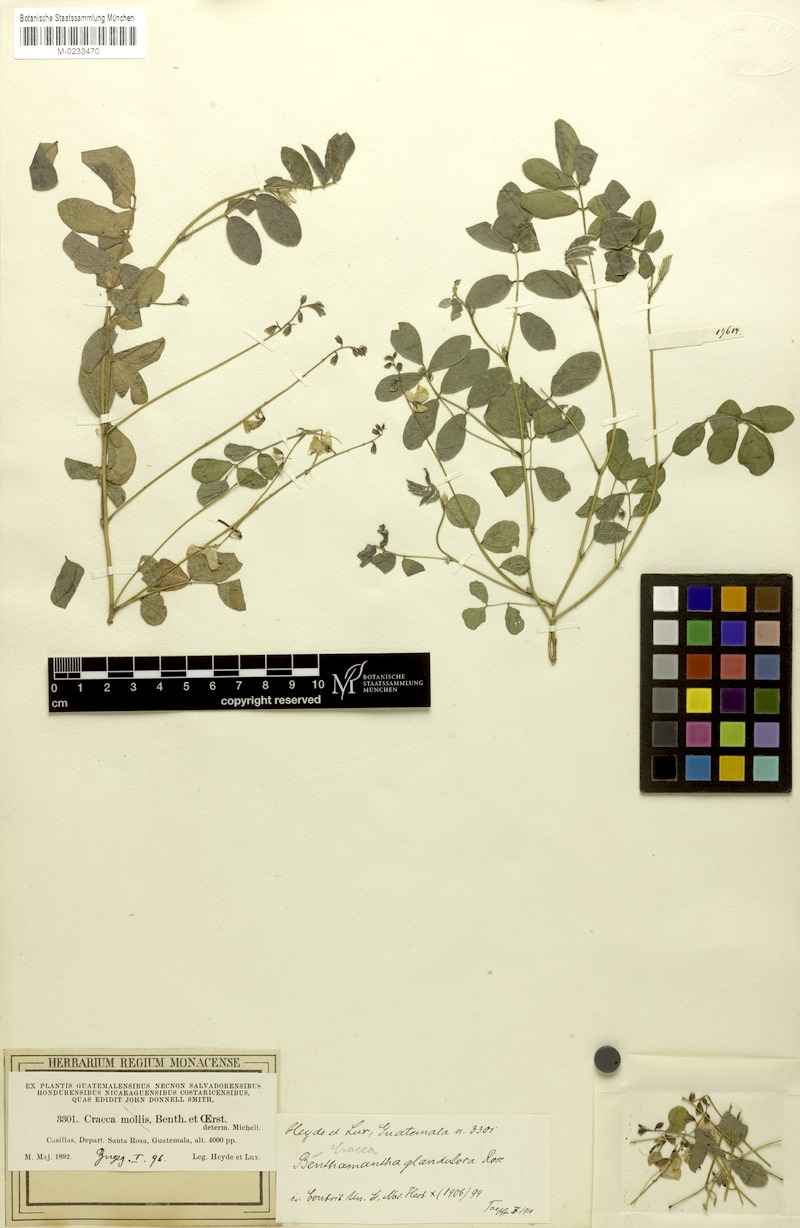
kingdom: Plantae
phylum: Tracheophyta
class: Magnoliopsida
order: Fabales
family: Fabaceae
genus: Coursetia
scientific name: Coursetia caribaea
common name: Anil falso
